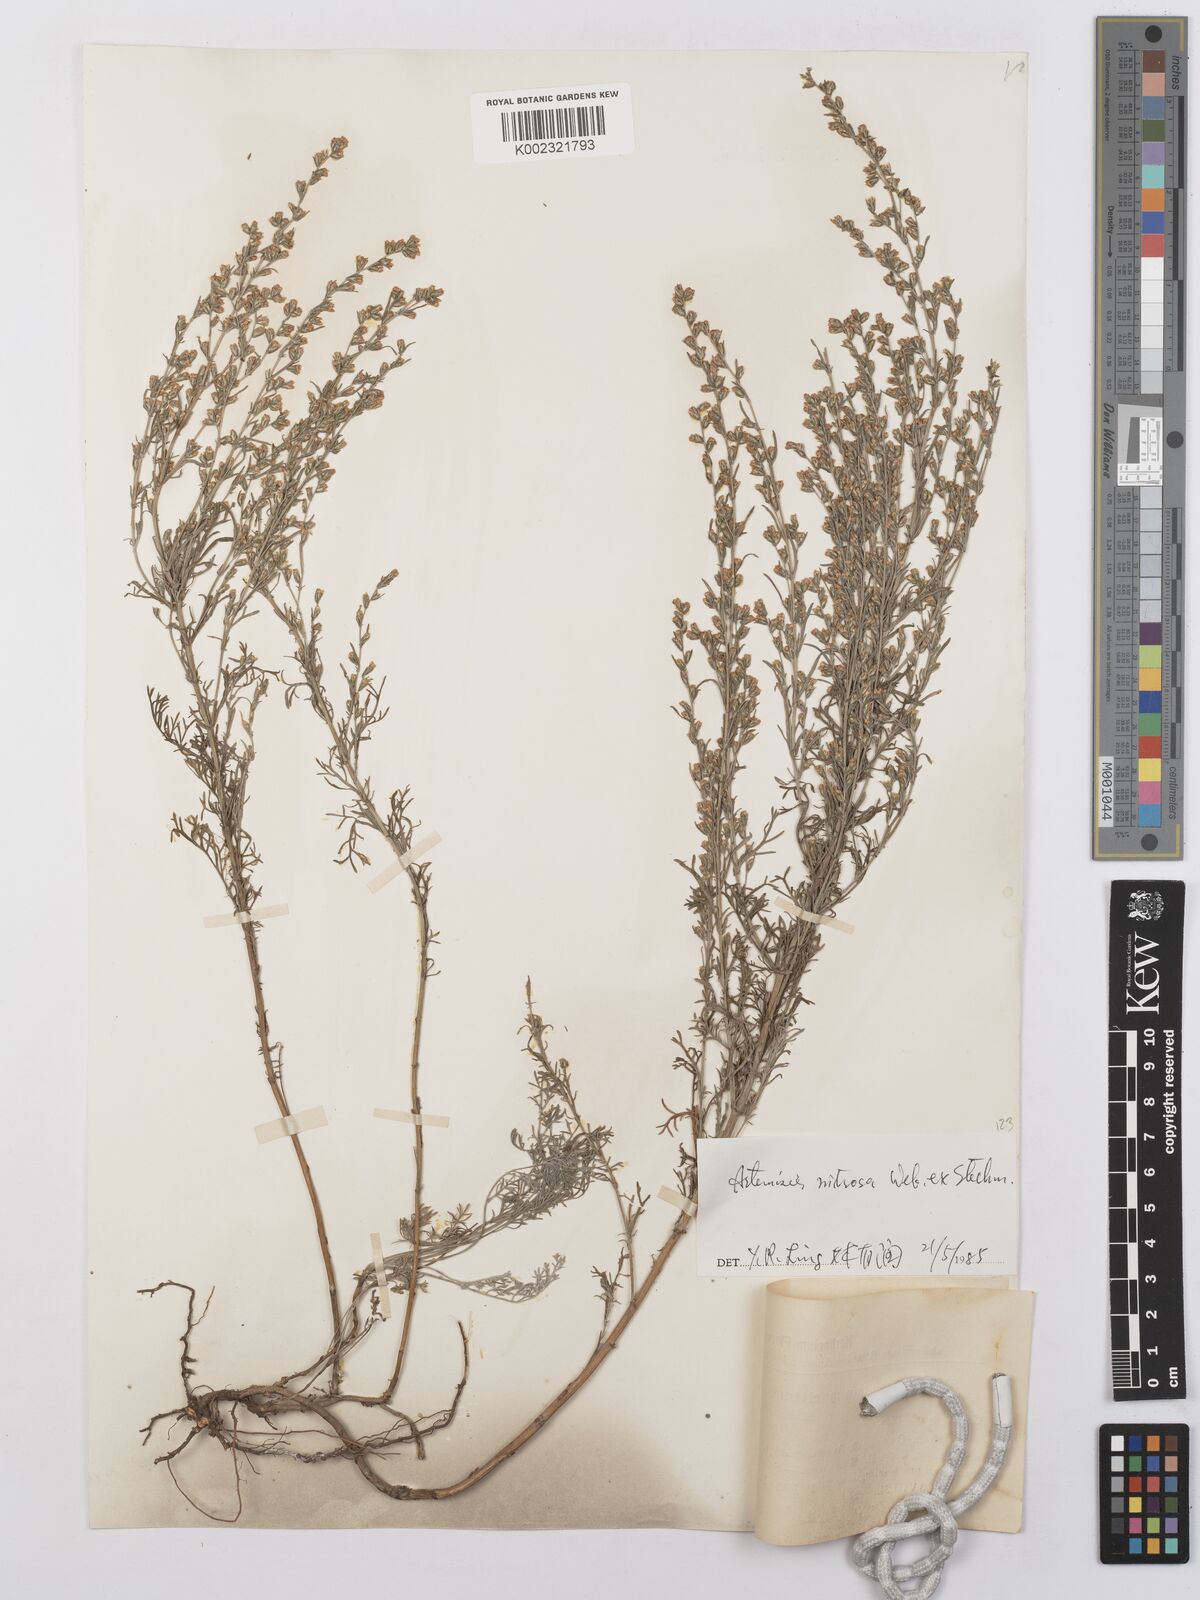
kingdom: Plantae
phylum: Tracheophyta
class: Magnoliopsida
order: Asterales
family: Asteraceae
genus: Artemisia
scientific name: Artemisia nitrosa
